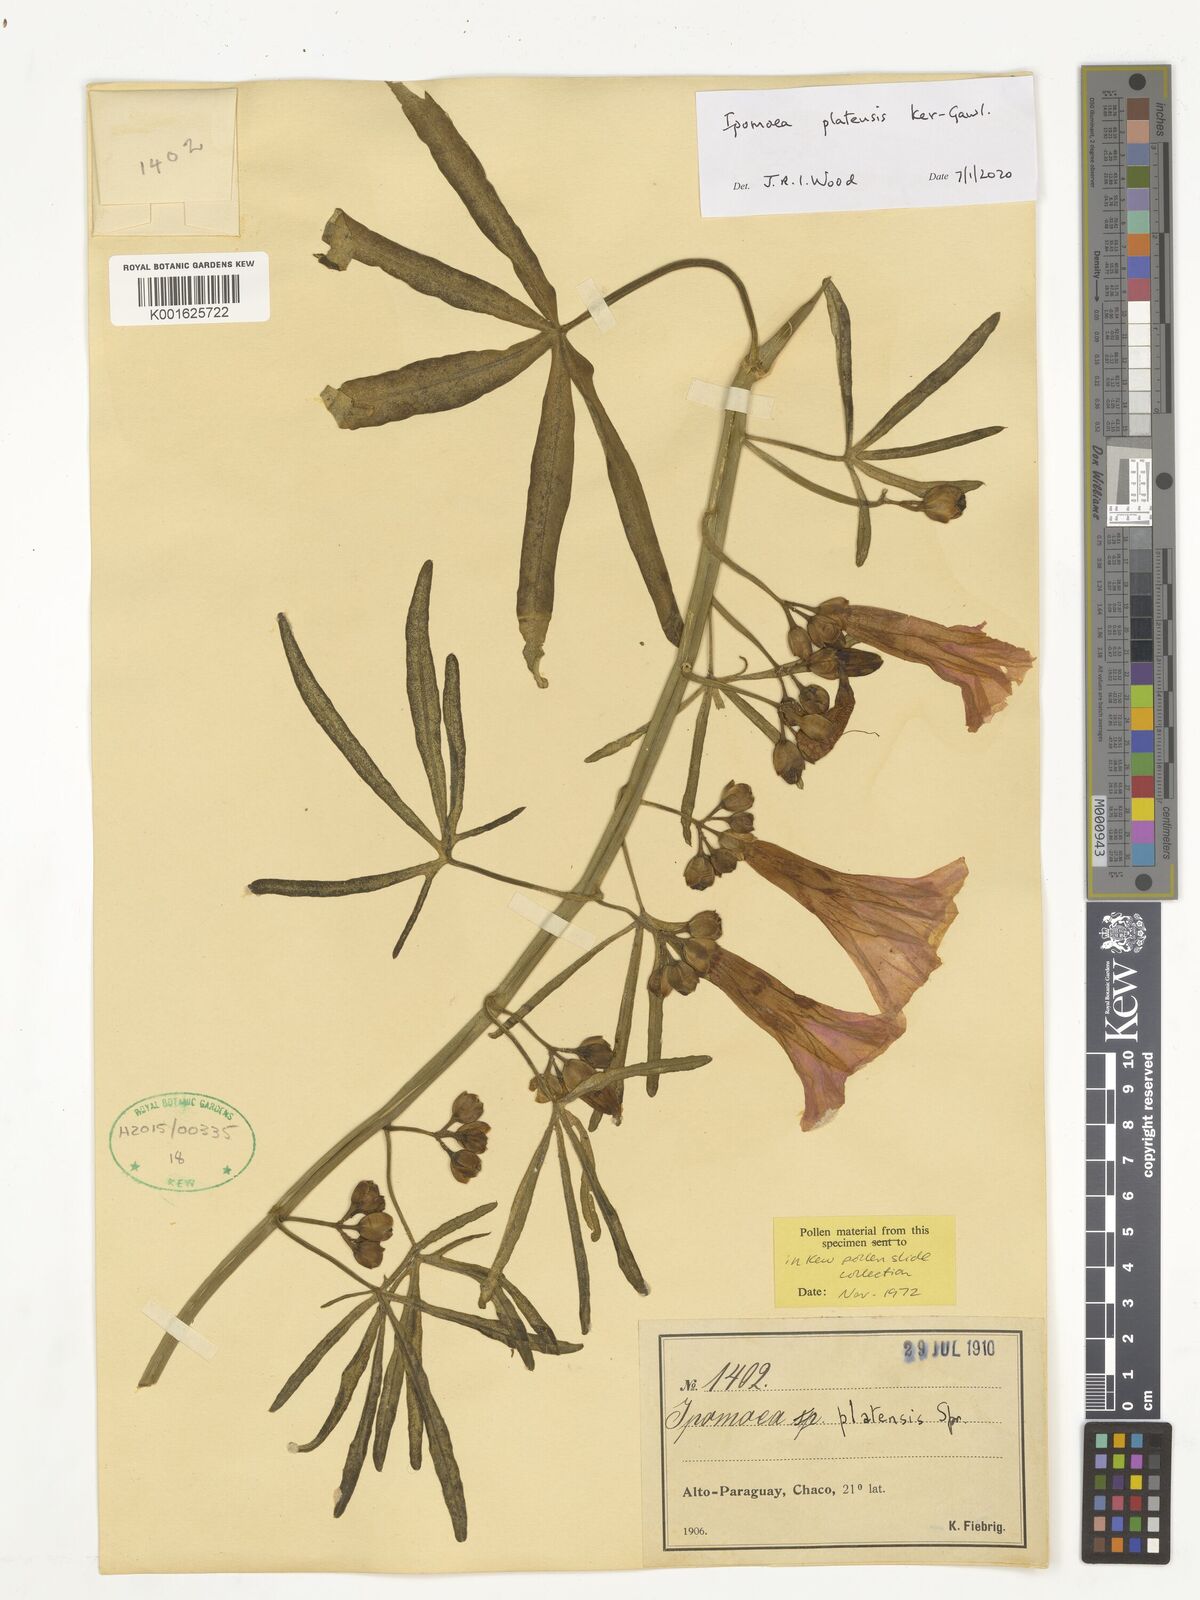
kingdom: Plantae
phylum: Tracheophyta
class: Magnoliopsida
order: Solanales
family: Convolvulaceae
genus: Ipomoea
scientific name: Ipomoea platensis
